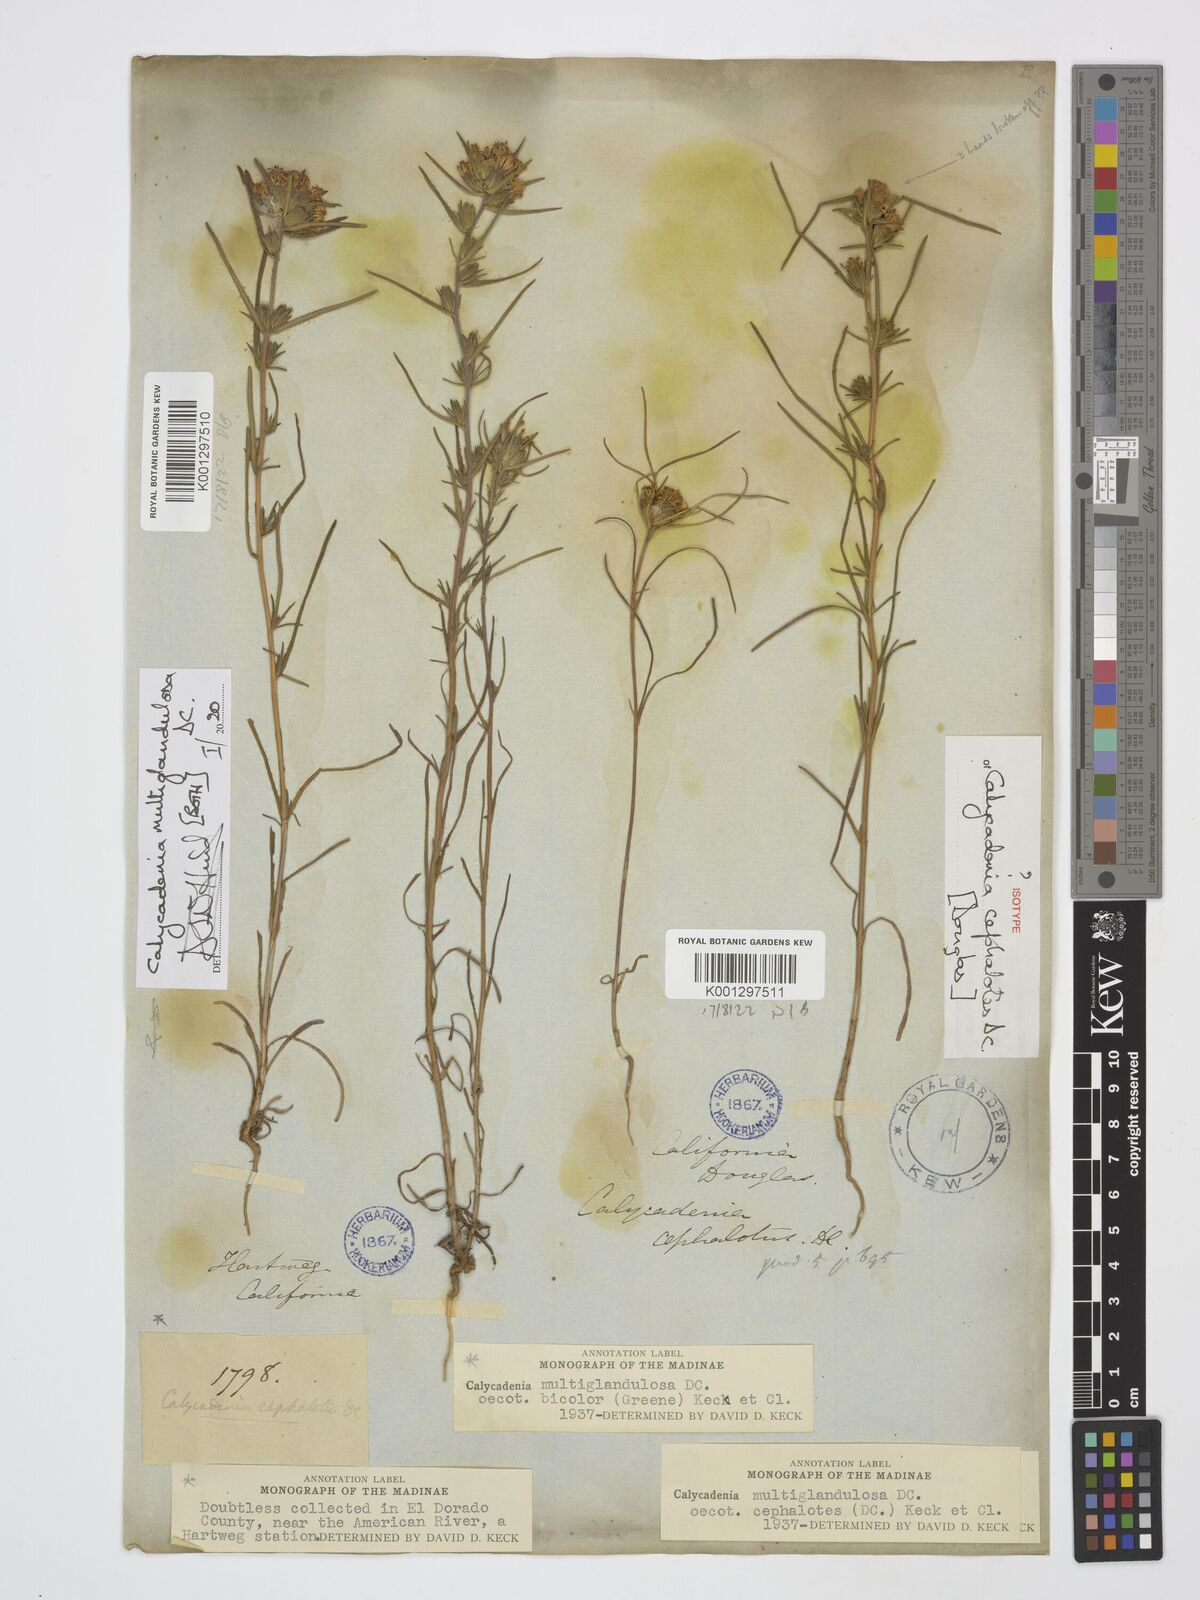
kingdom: Plantae
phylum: Tracheophyta
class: Magnoliopsida
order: Asterales
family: Asteraceae
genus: Calycadenia
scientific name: Calycadenia multiglandulosa
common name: Sticky calycadenia
